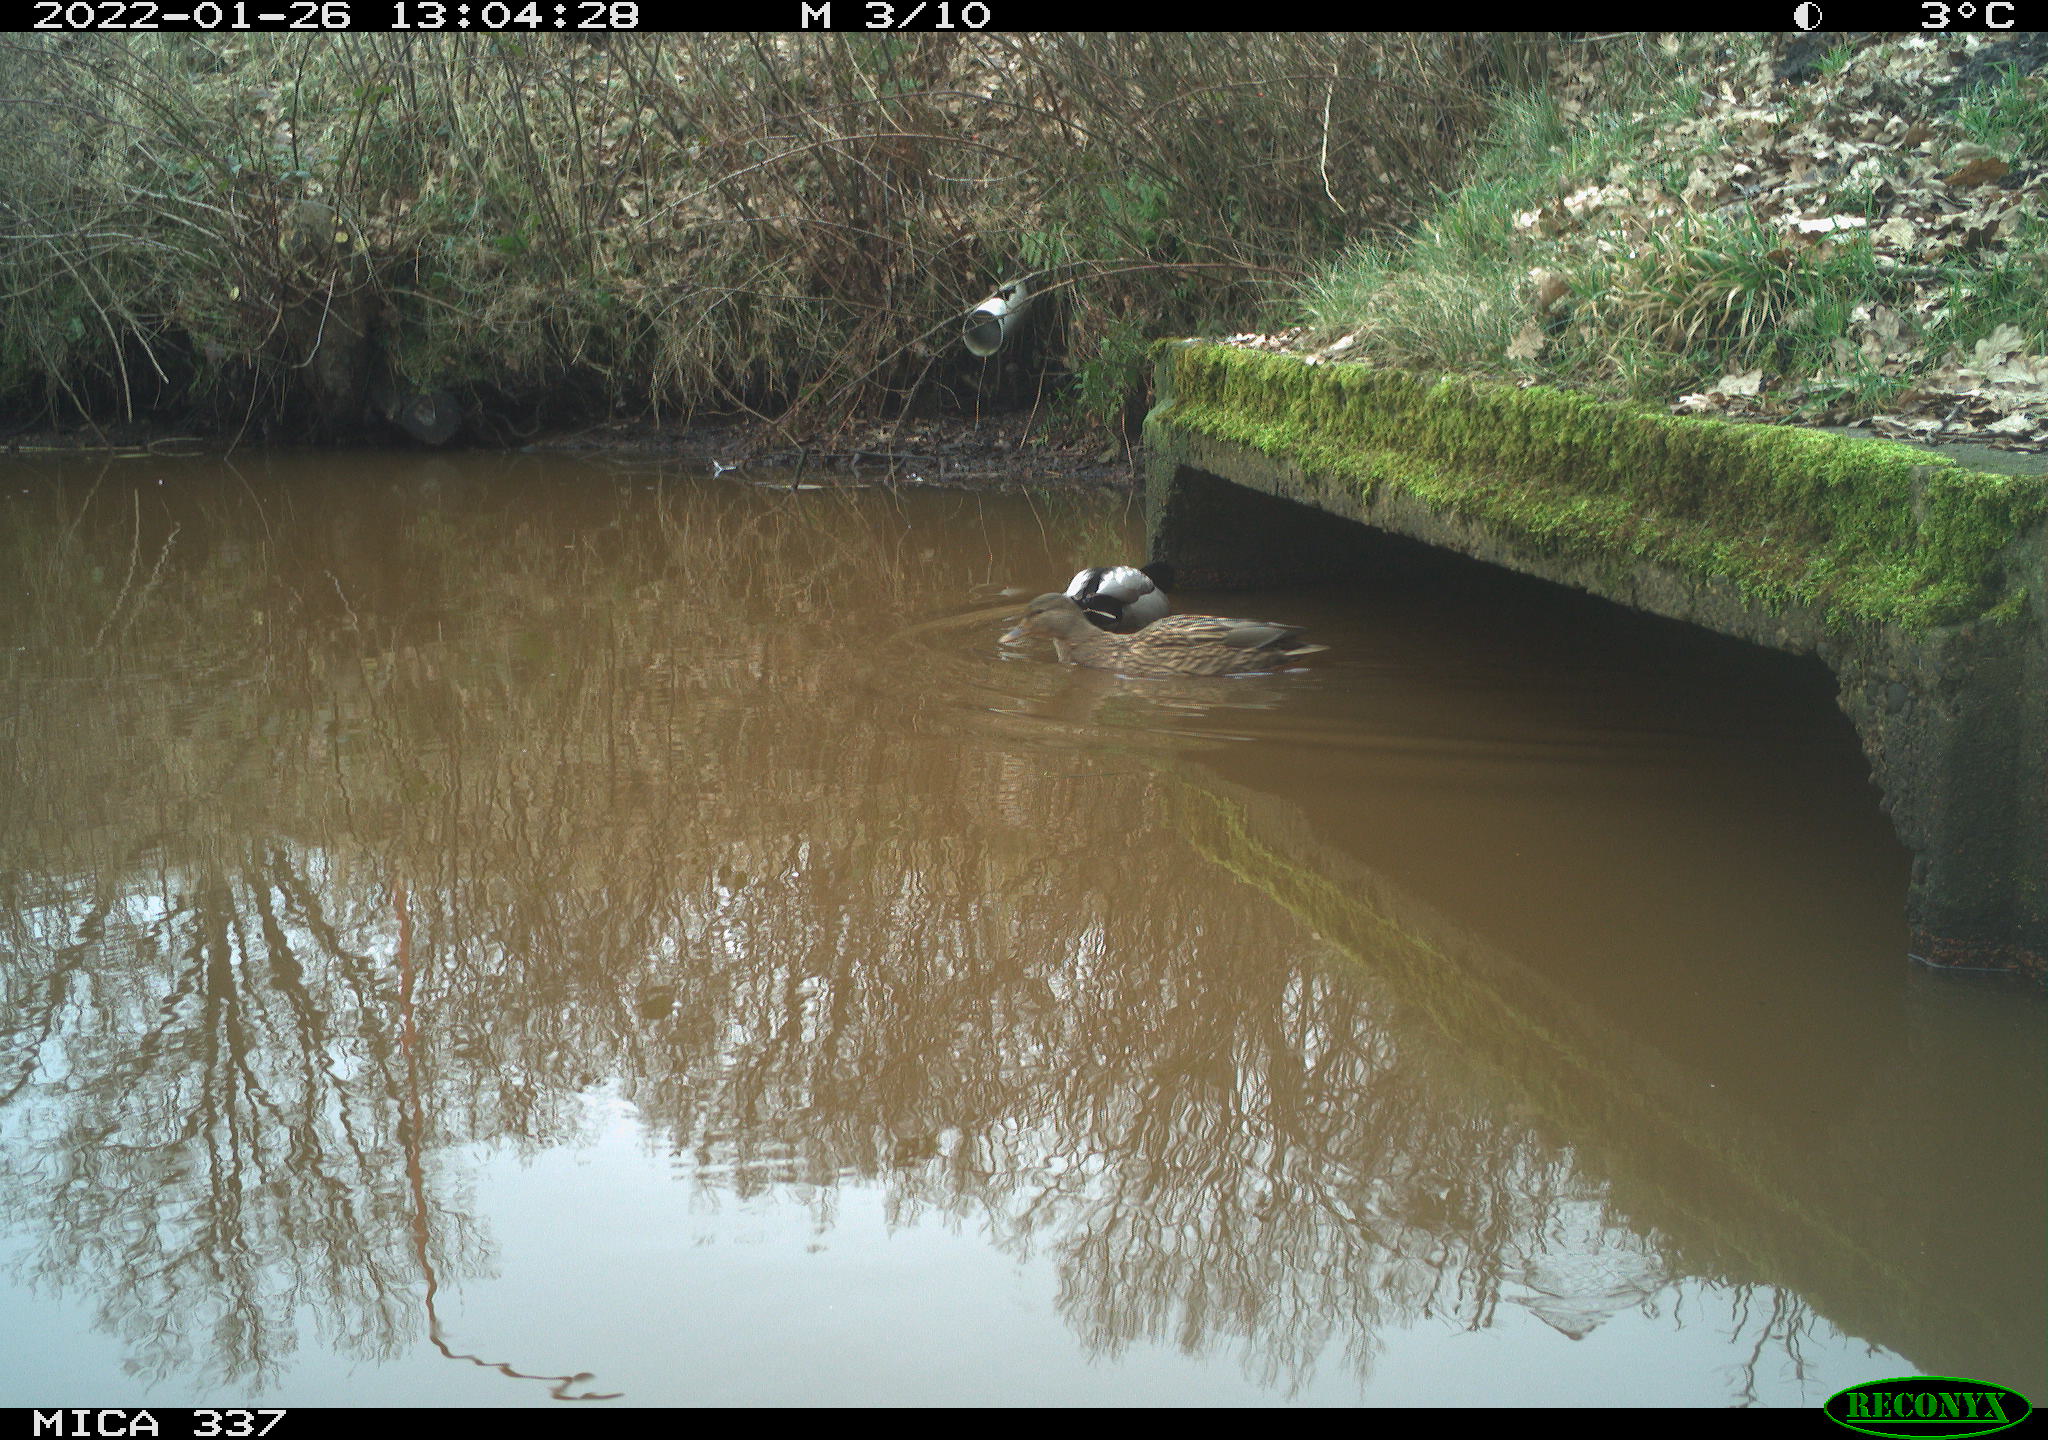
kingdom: Animalia
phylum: Chordata
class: Aves
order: Anseriformes
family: Anatidae
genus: Anas
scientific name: Anas platyrhynchos
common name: Mallard
